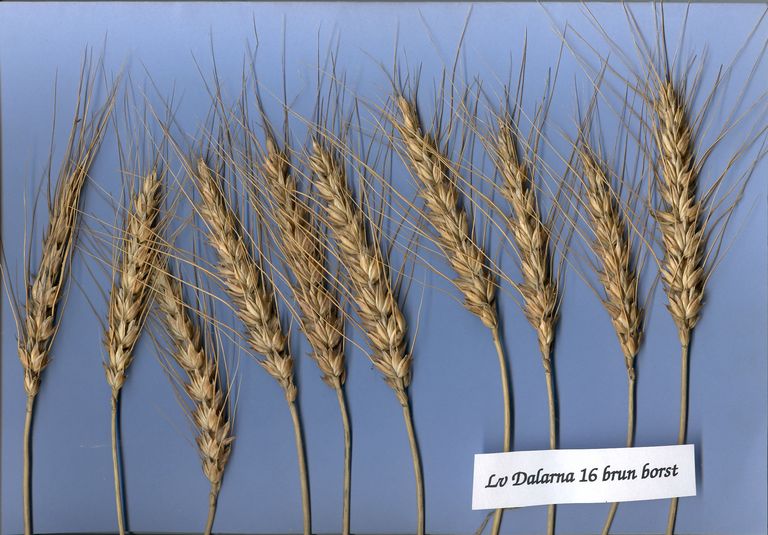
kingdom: Plantae
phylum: Tracheophyta
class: Liliopsida
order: Poales
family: Poaceae
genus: Triticum
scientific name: Triticum aestivum
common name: Common wheat
